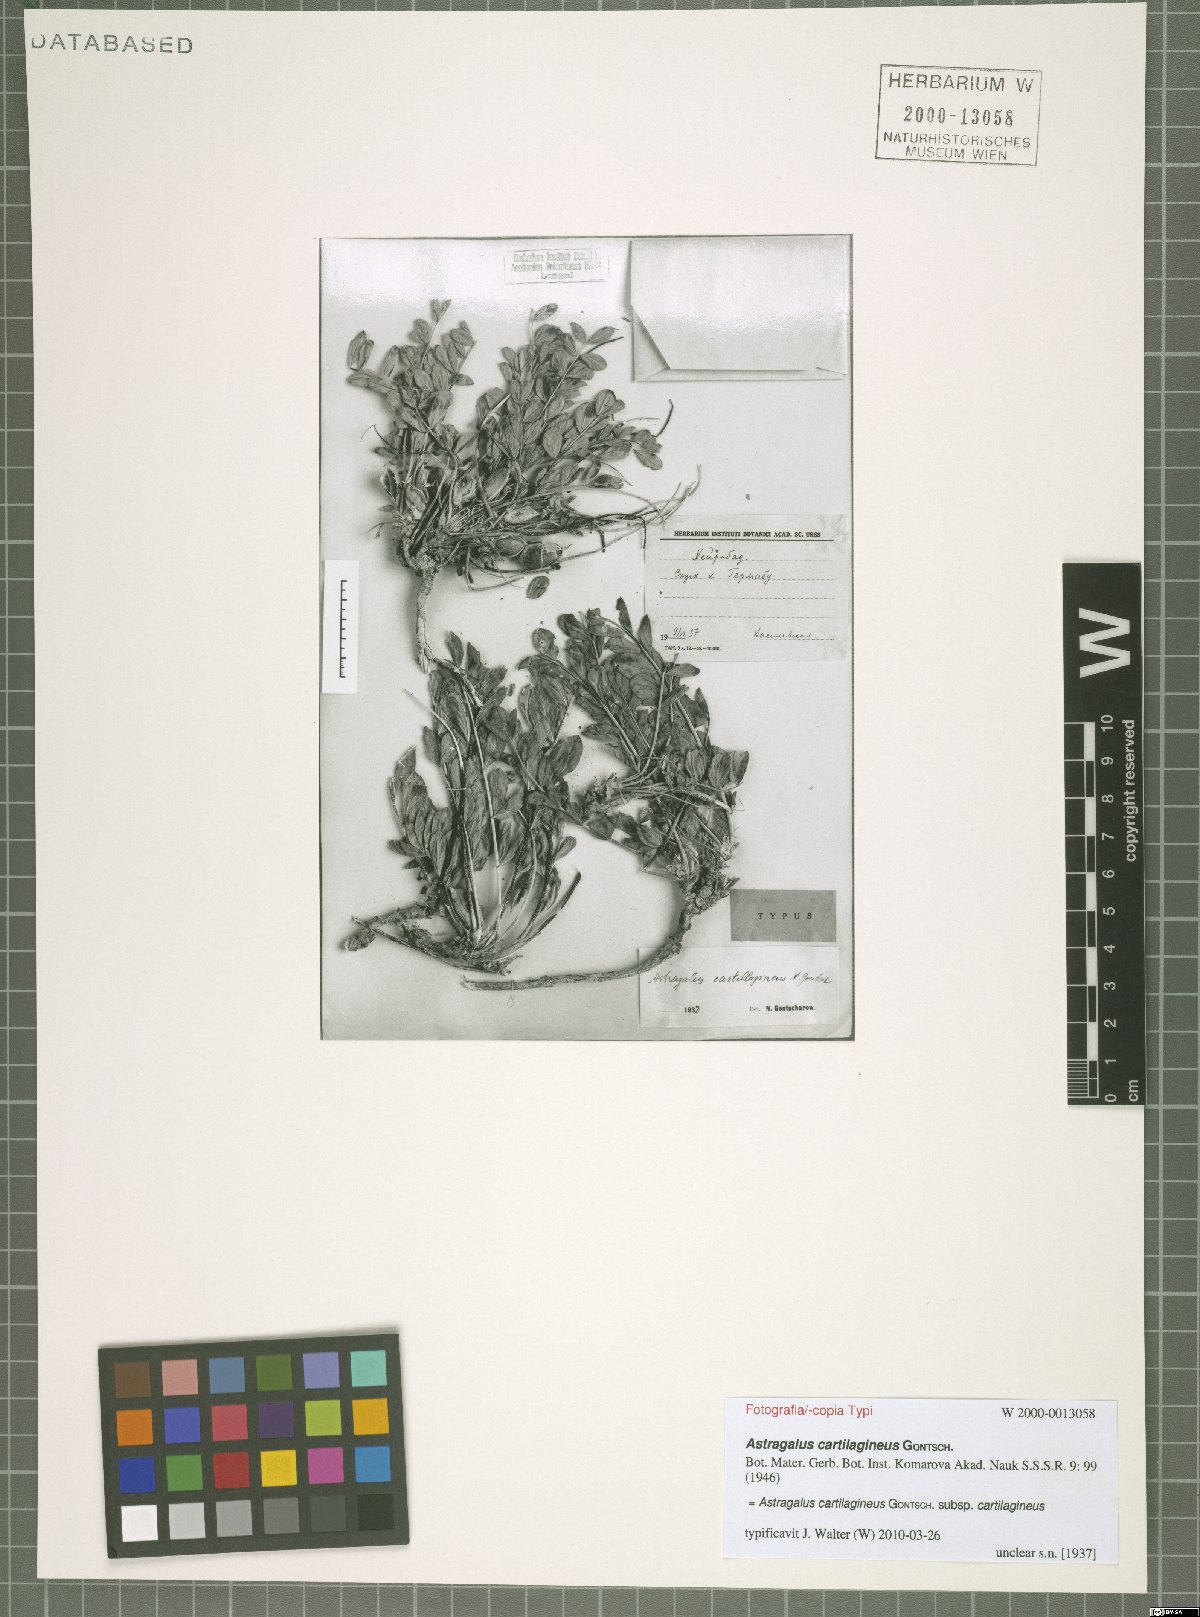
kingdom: Plantae
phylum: Tracheophyta
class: Magnoliopsida
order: Fabales
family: Fabaceae
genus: Astragalus
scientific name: Astragalus cartilagineus
